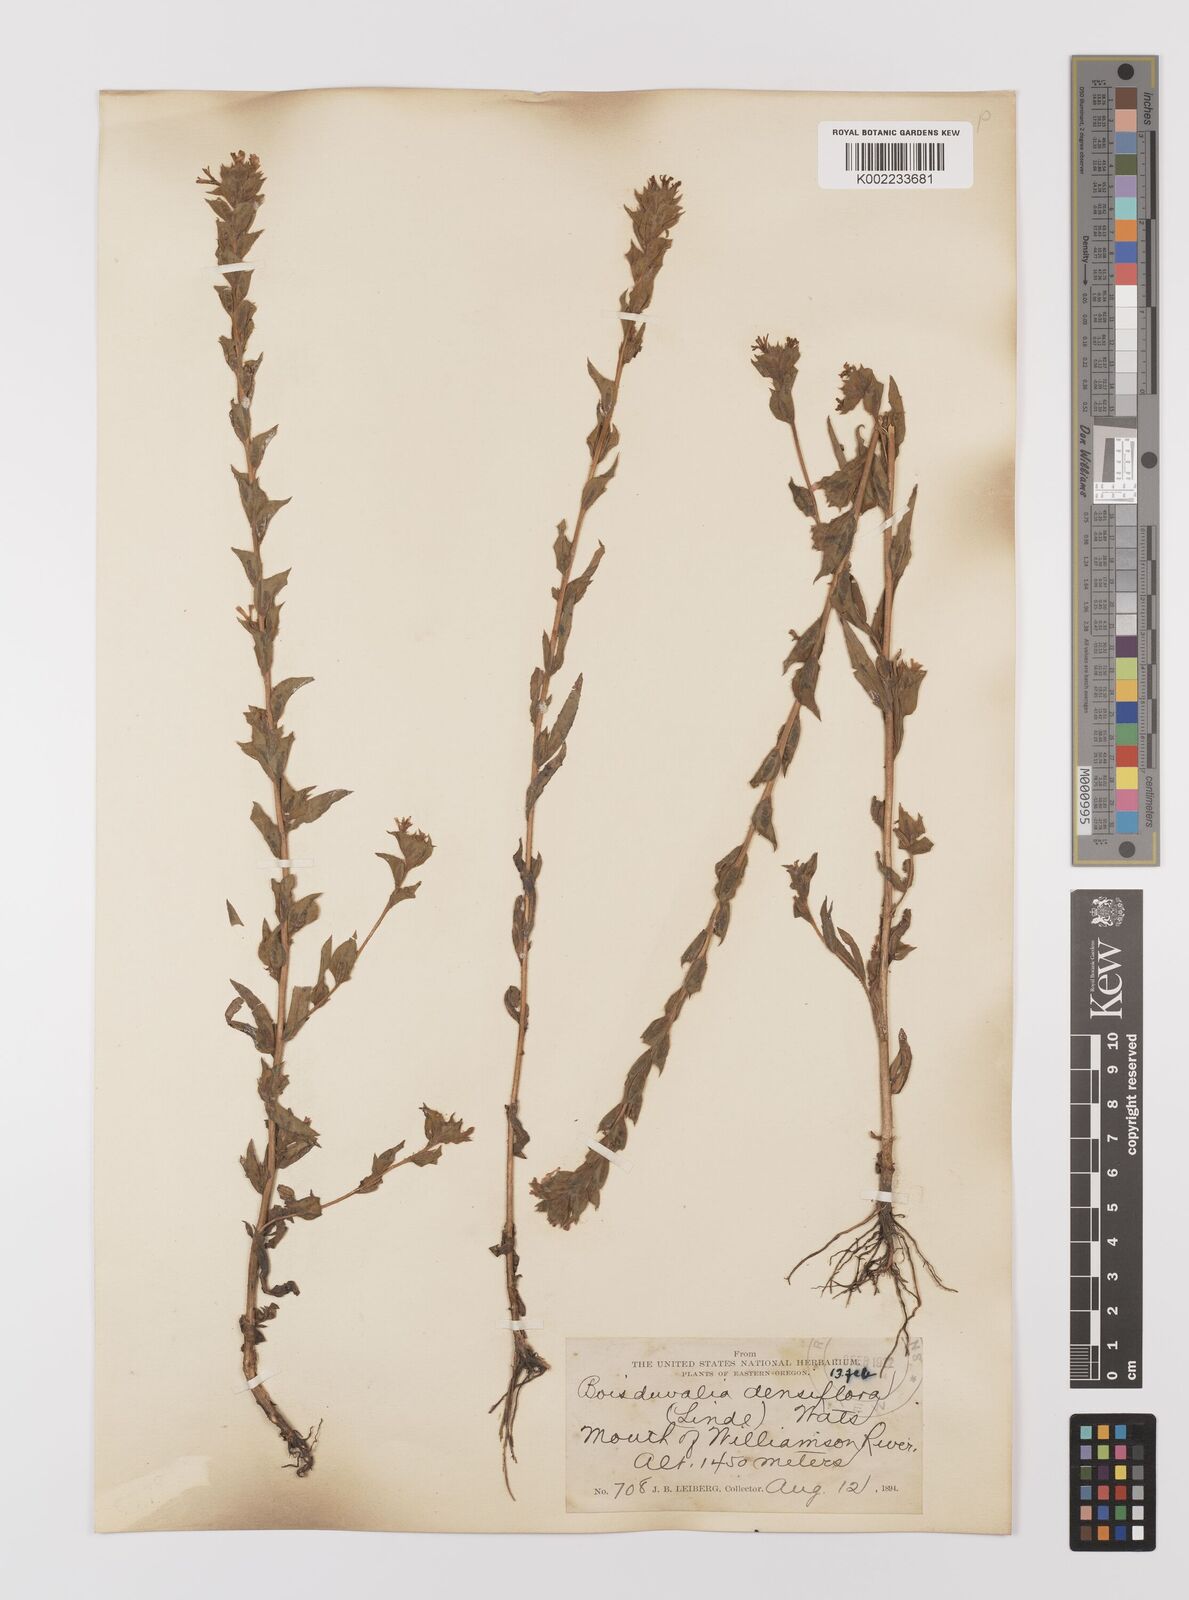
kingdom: Plantae
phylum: Tracheophyta
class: Magnoliopsida
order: Myrtales
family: Onagraceae
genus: Epilobium
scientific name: Epilobium densiflorum
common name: Dense spike-primrose
